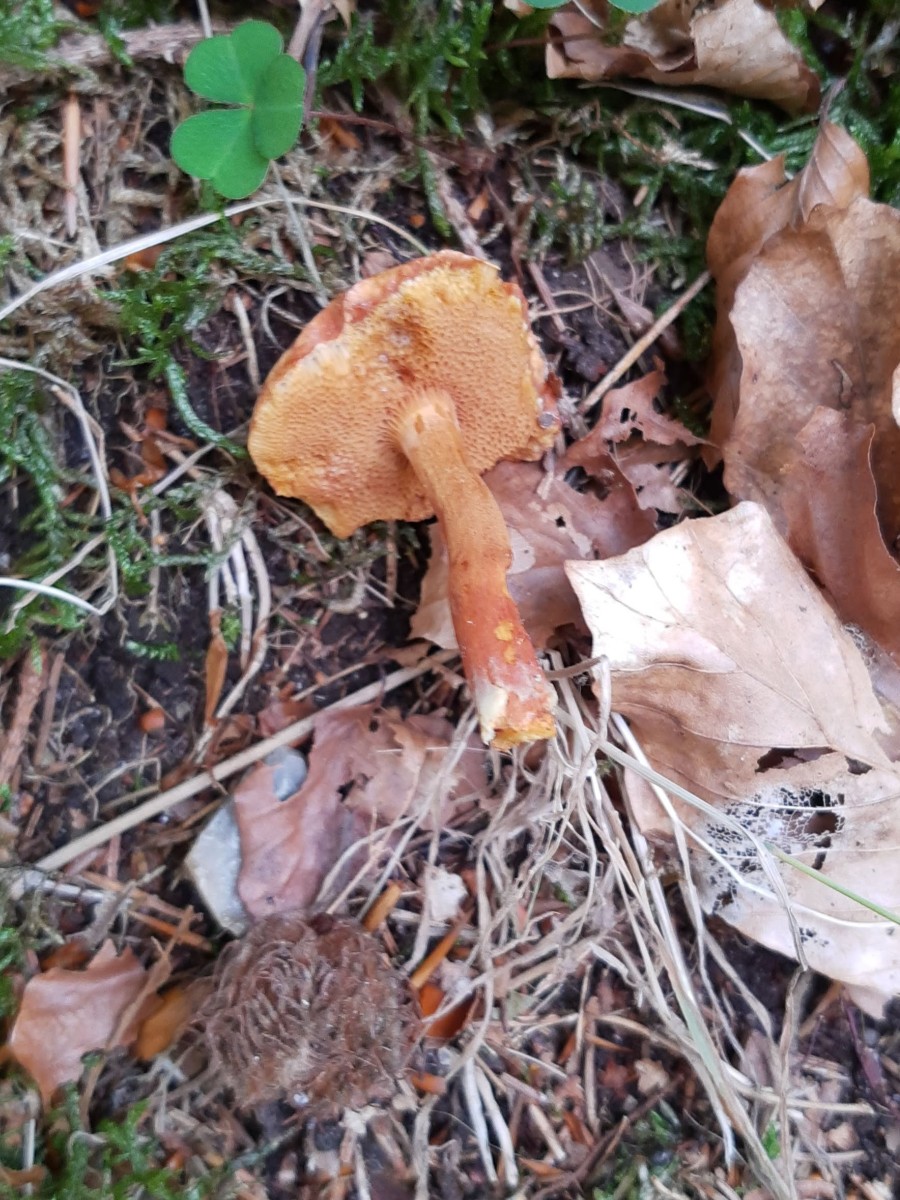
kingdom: Fungi
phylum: Basidiomycota
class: Agaricomycetes
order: Boletales
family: Boletaceae
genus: Chalciporus
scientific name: Chalciporus piperatus
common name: peberrørhat
